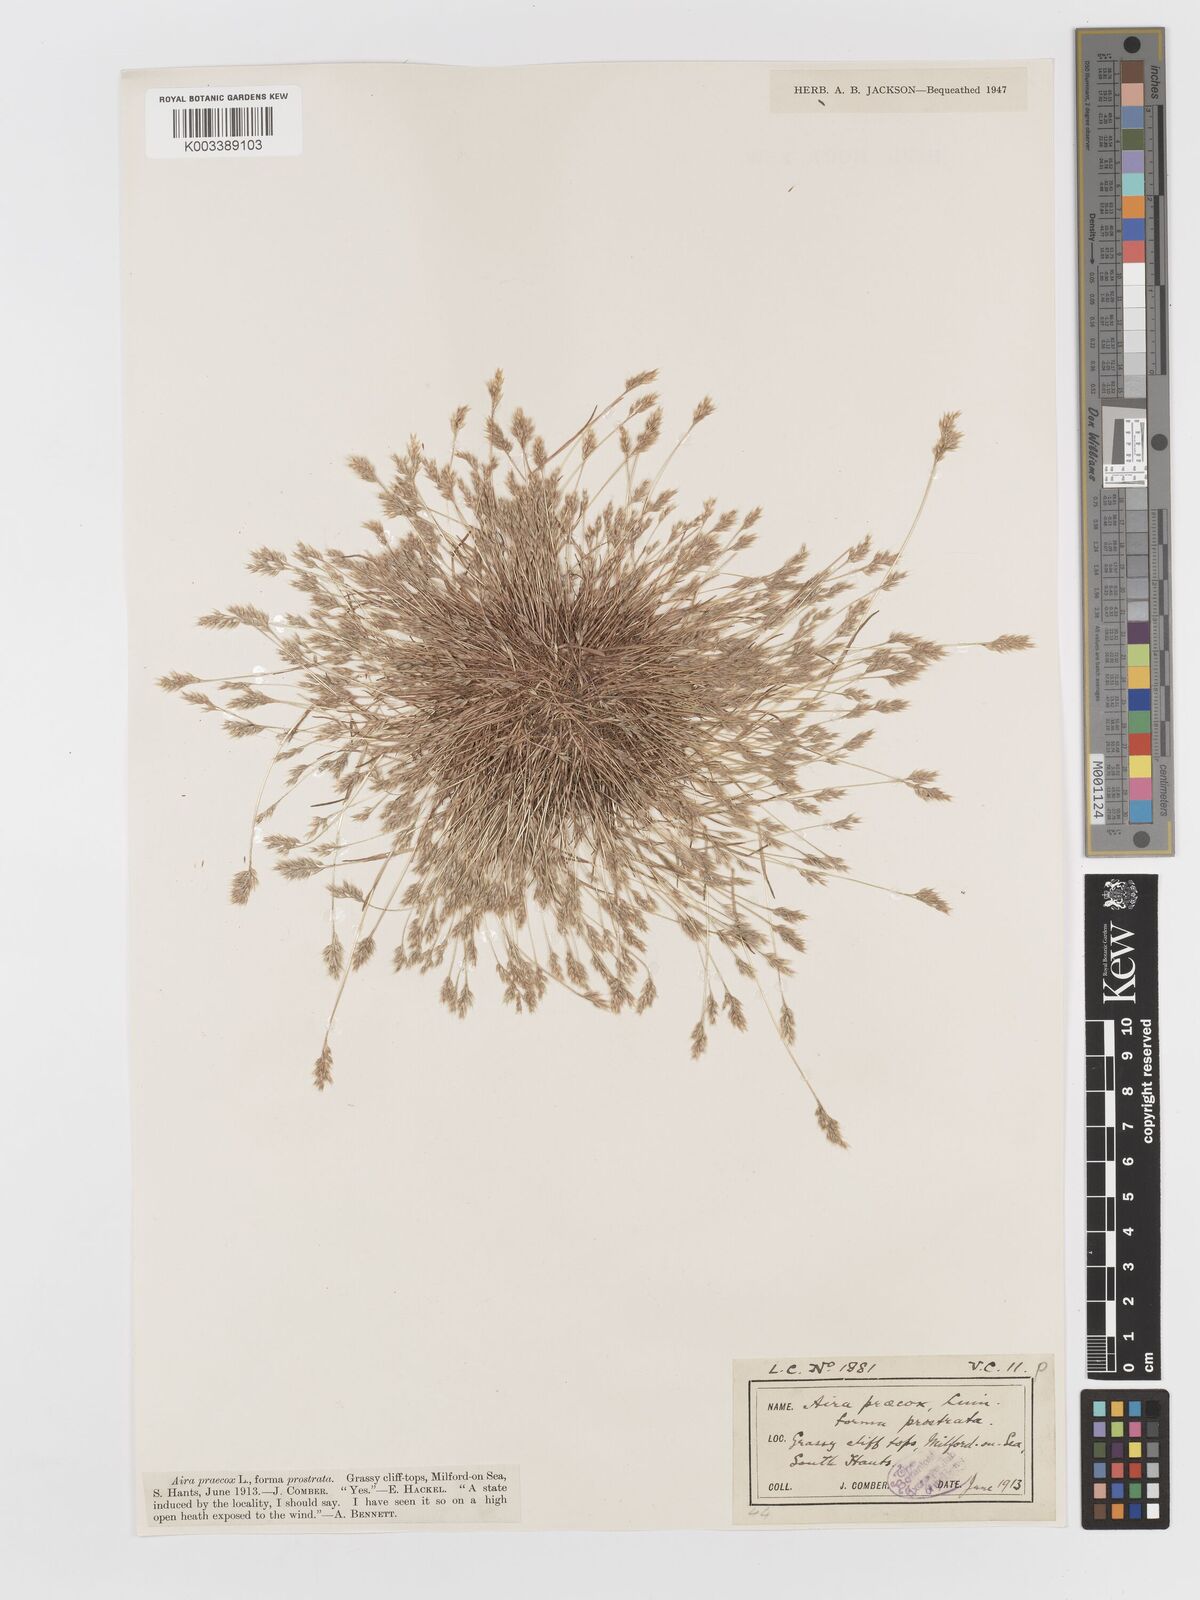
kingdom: Plantae
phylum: Tracheophyta
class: Liliopsida
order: Poales
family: Poaceae
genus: Aira
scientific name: Aira praecox
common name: Early hair-grass
